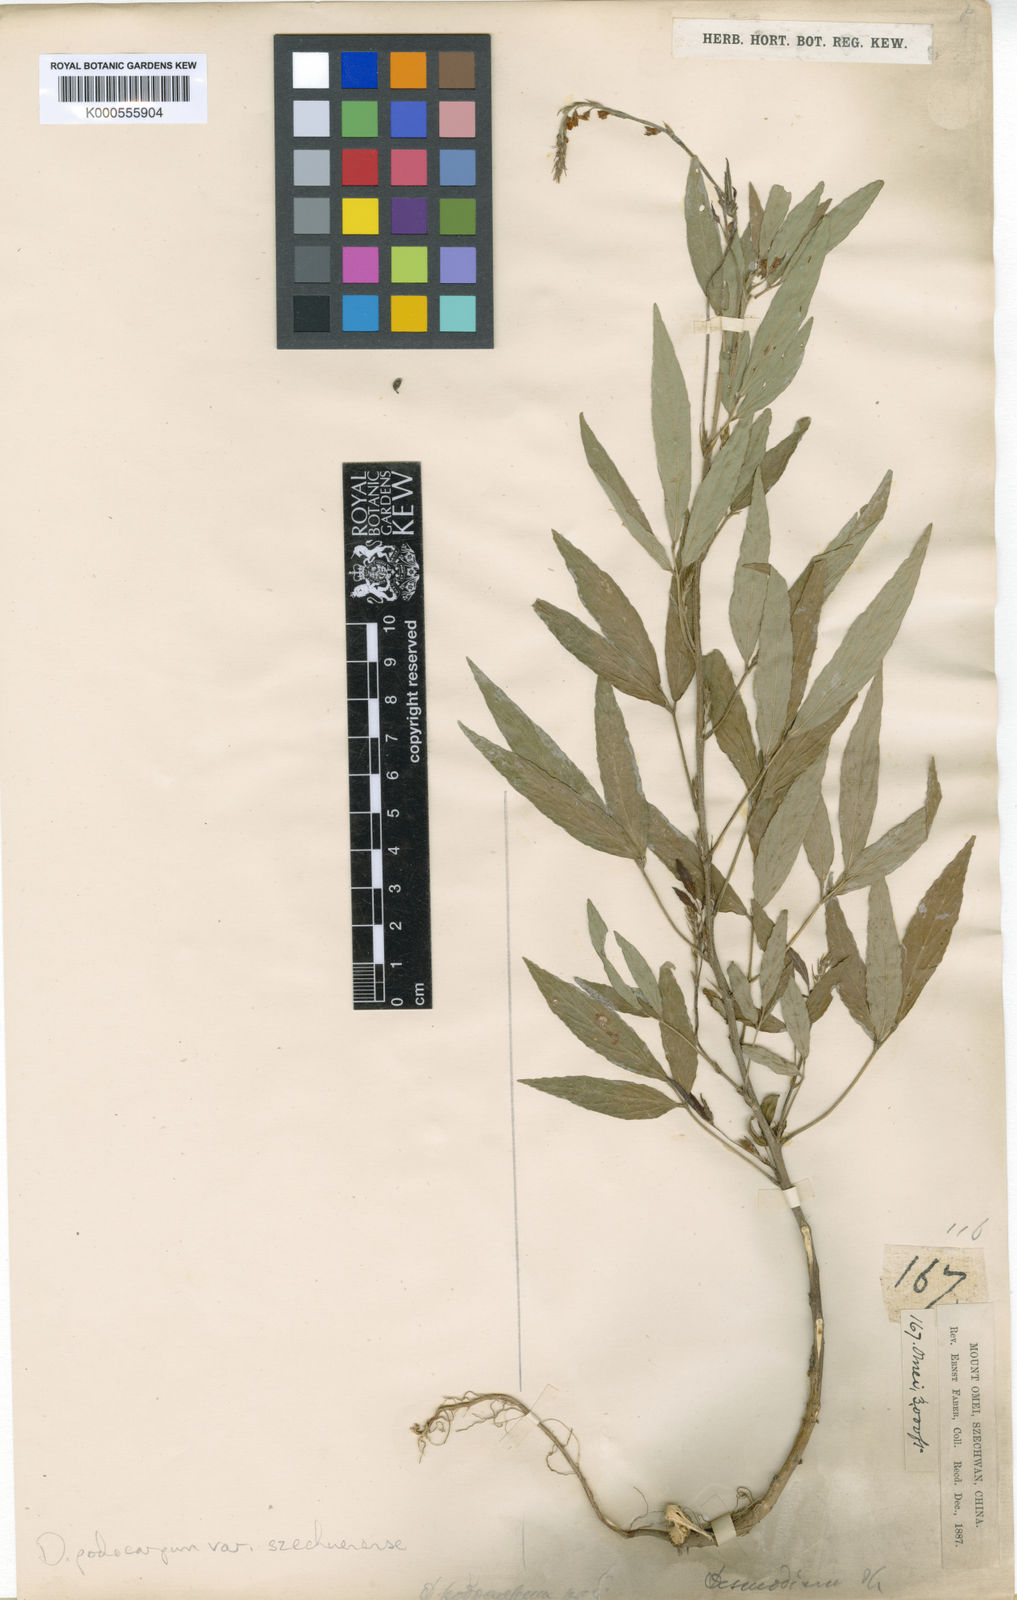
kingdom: Plantae
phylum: Tracheophyta
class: Magnoliopsida
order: Fabales
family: Fabaceae
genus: Hylodesmum
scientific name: Hylodesmum podocarpum
